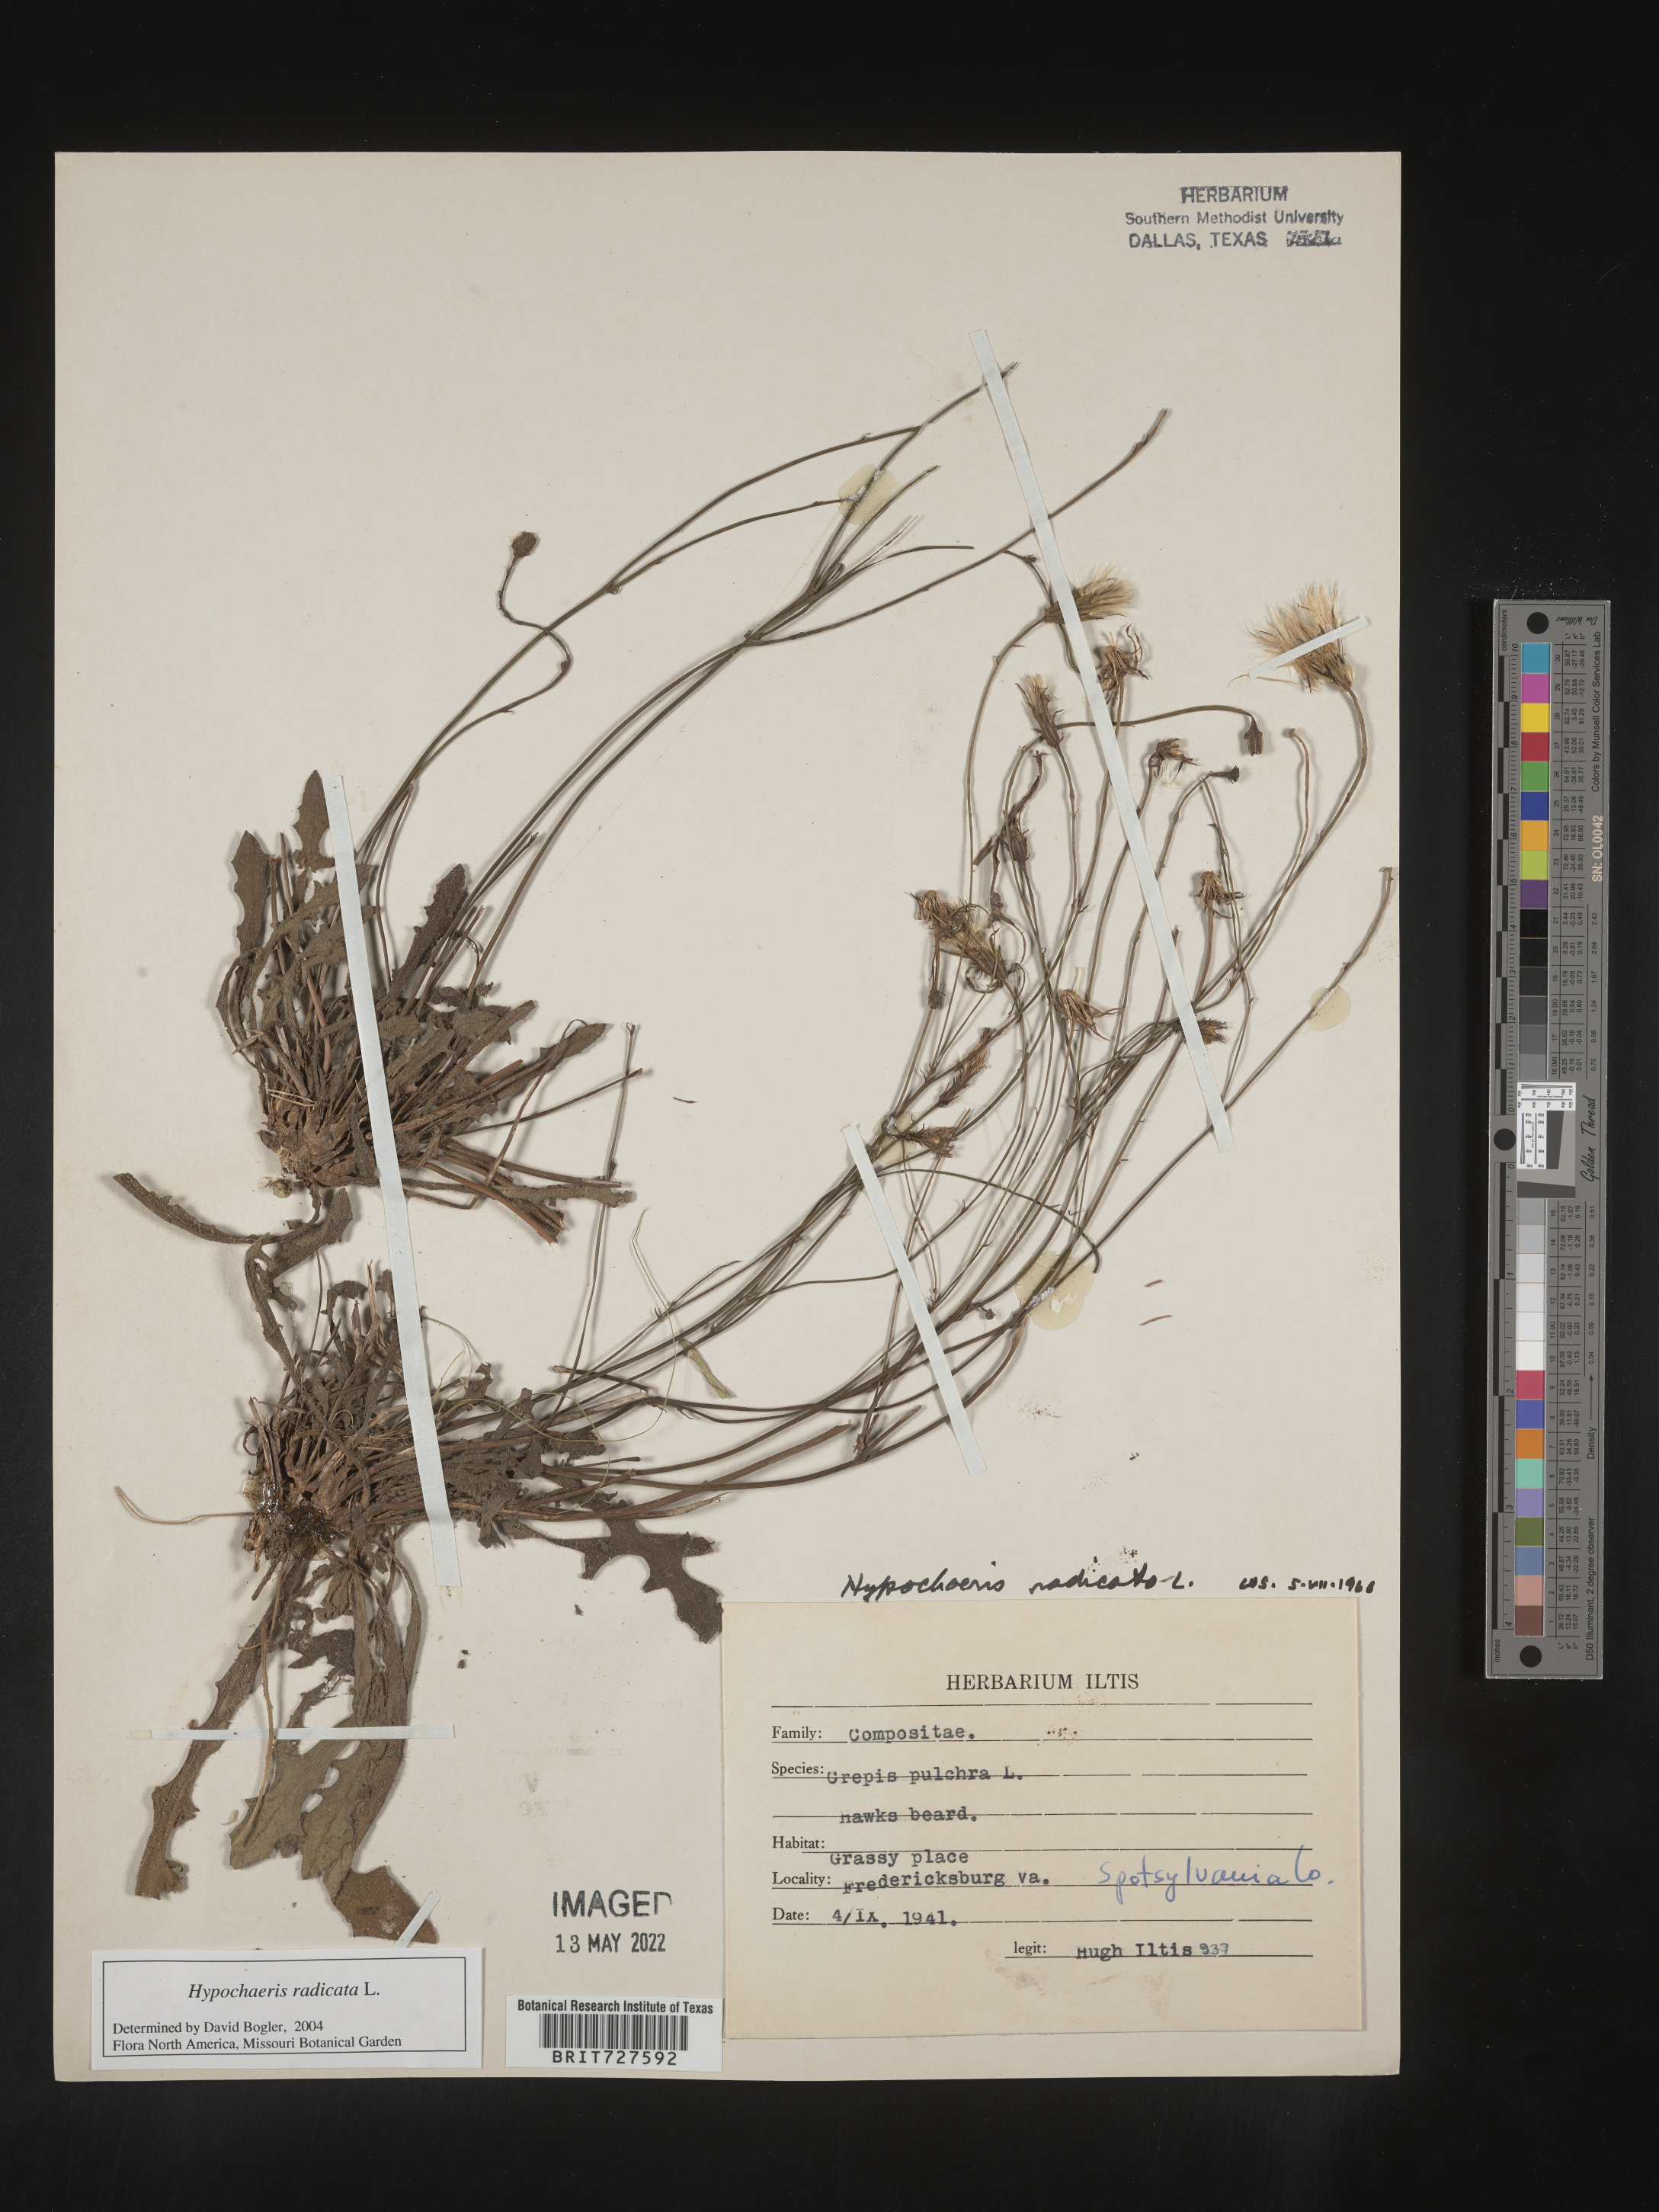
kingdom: Plantae
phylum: Tracheophyta
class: Magnoliopsida
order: Asterales
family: Asteraceae
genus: Hypochaeris
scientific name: Hypochaeris radicata
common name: Flatweed
